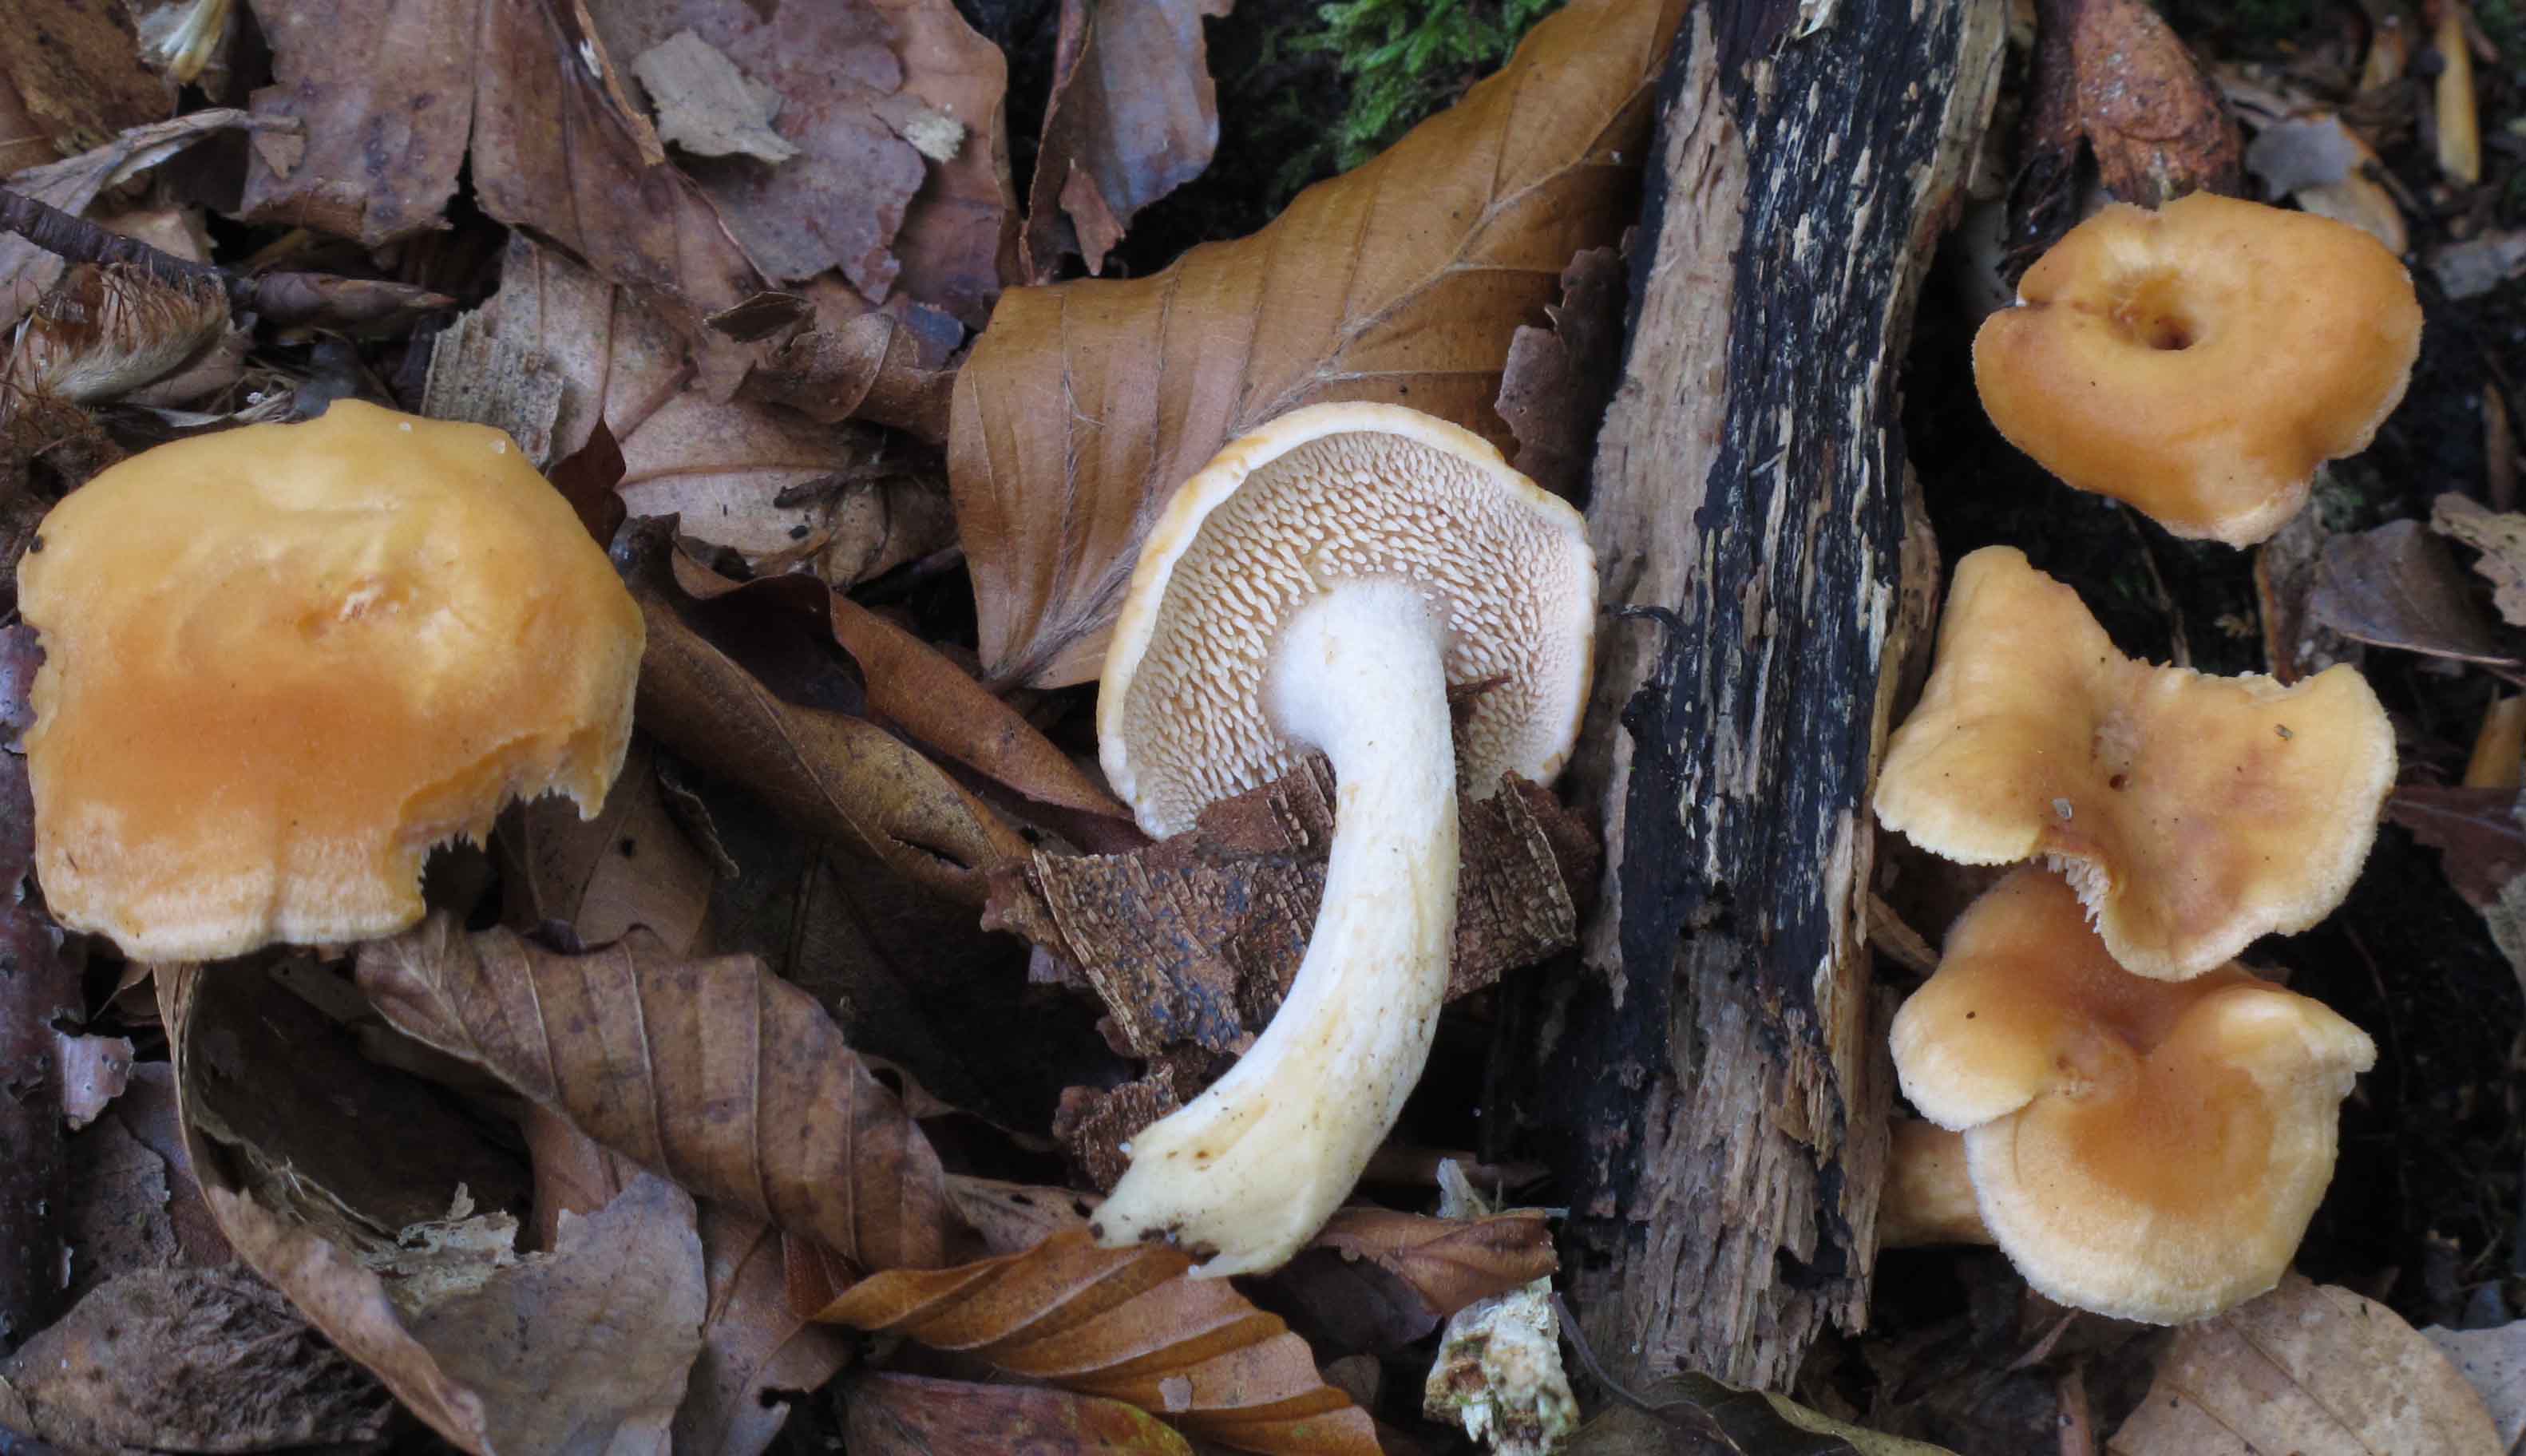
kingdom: Fungi
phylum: Basidiomycota
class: Agaricomycetes
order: Cantharellales
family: Hydnaceae
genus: Hydnum
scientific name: Hydnum umbilicatum
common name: navle-pigsvamp
